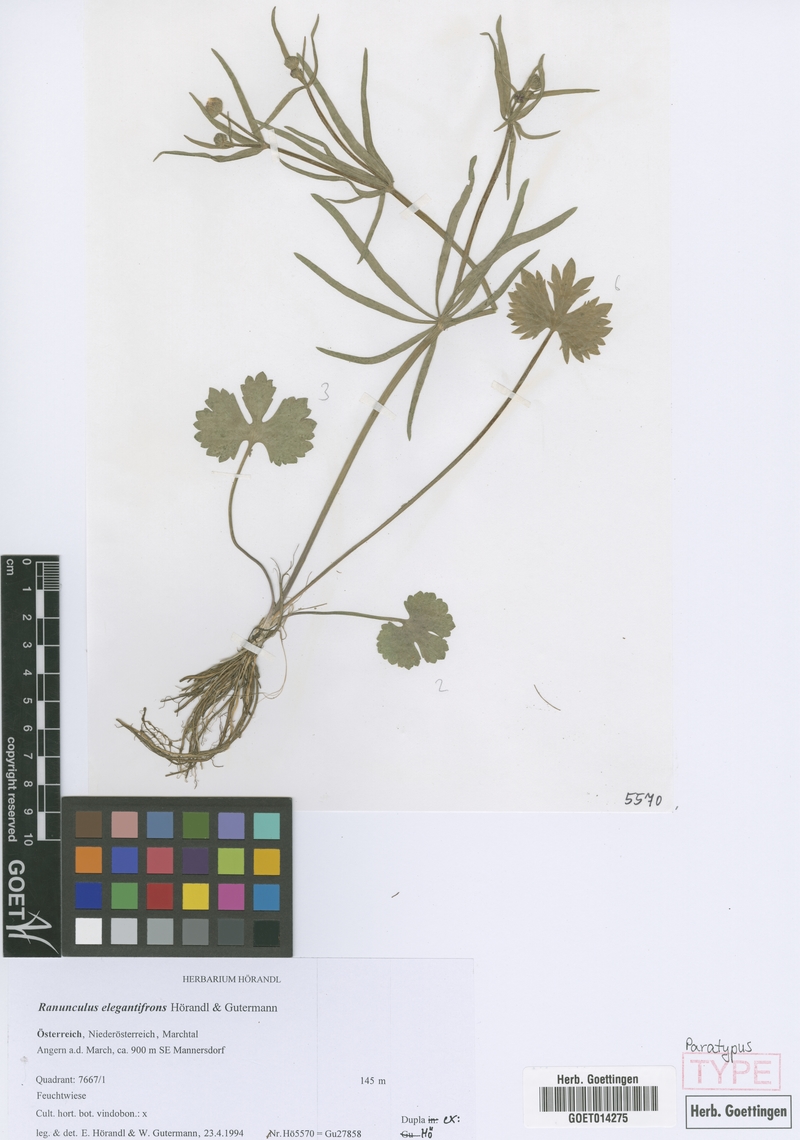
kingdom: Plantae
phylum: Tracheophyta
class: Magnoliopsida
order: Ranunculales
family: Ranunculaceae
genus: Ranunculus
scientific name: Ranunculus elegantifrons
